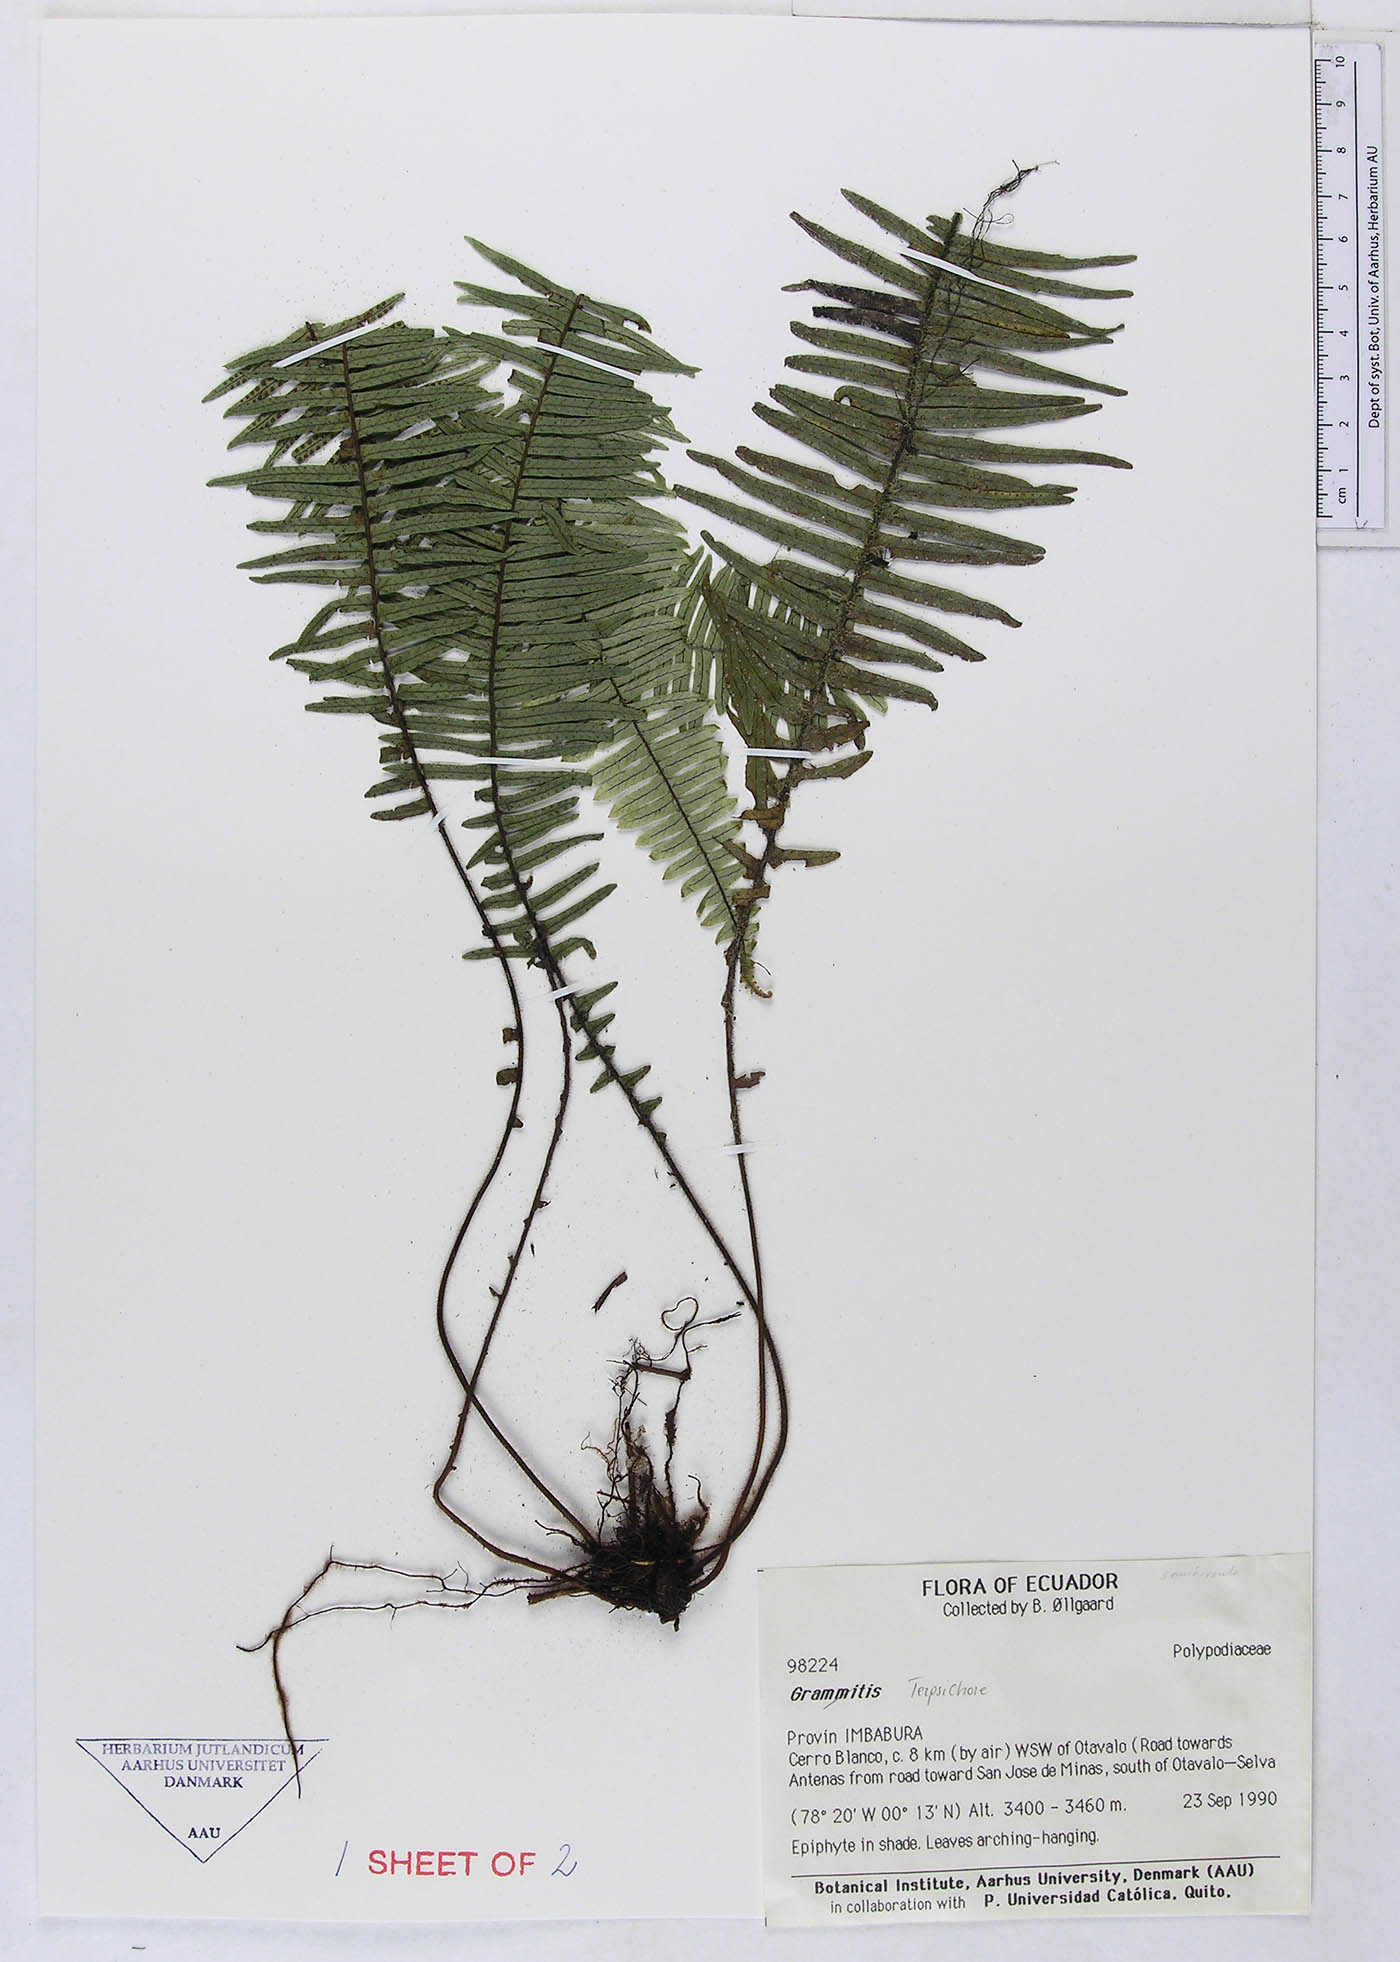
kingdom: Plantae
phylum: Tracheophyta
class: Polypodiopsida
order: Polypodiales
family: Polypodiaceae
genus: Grammitis
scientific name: Grammitis
